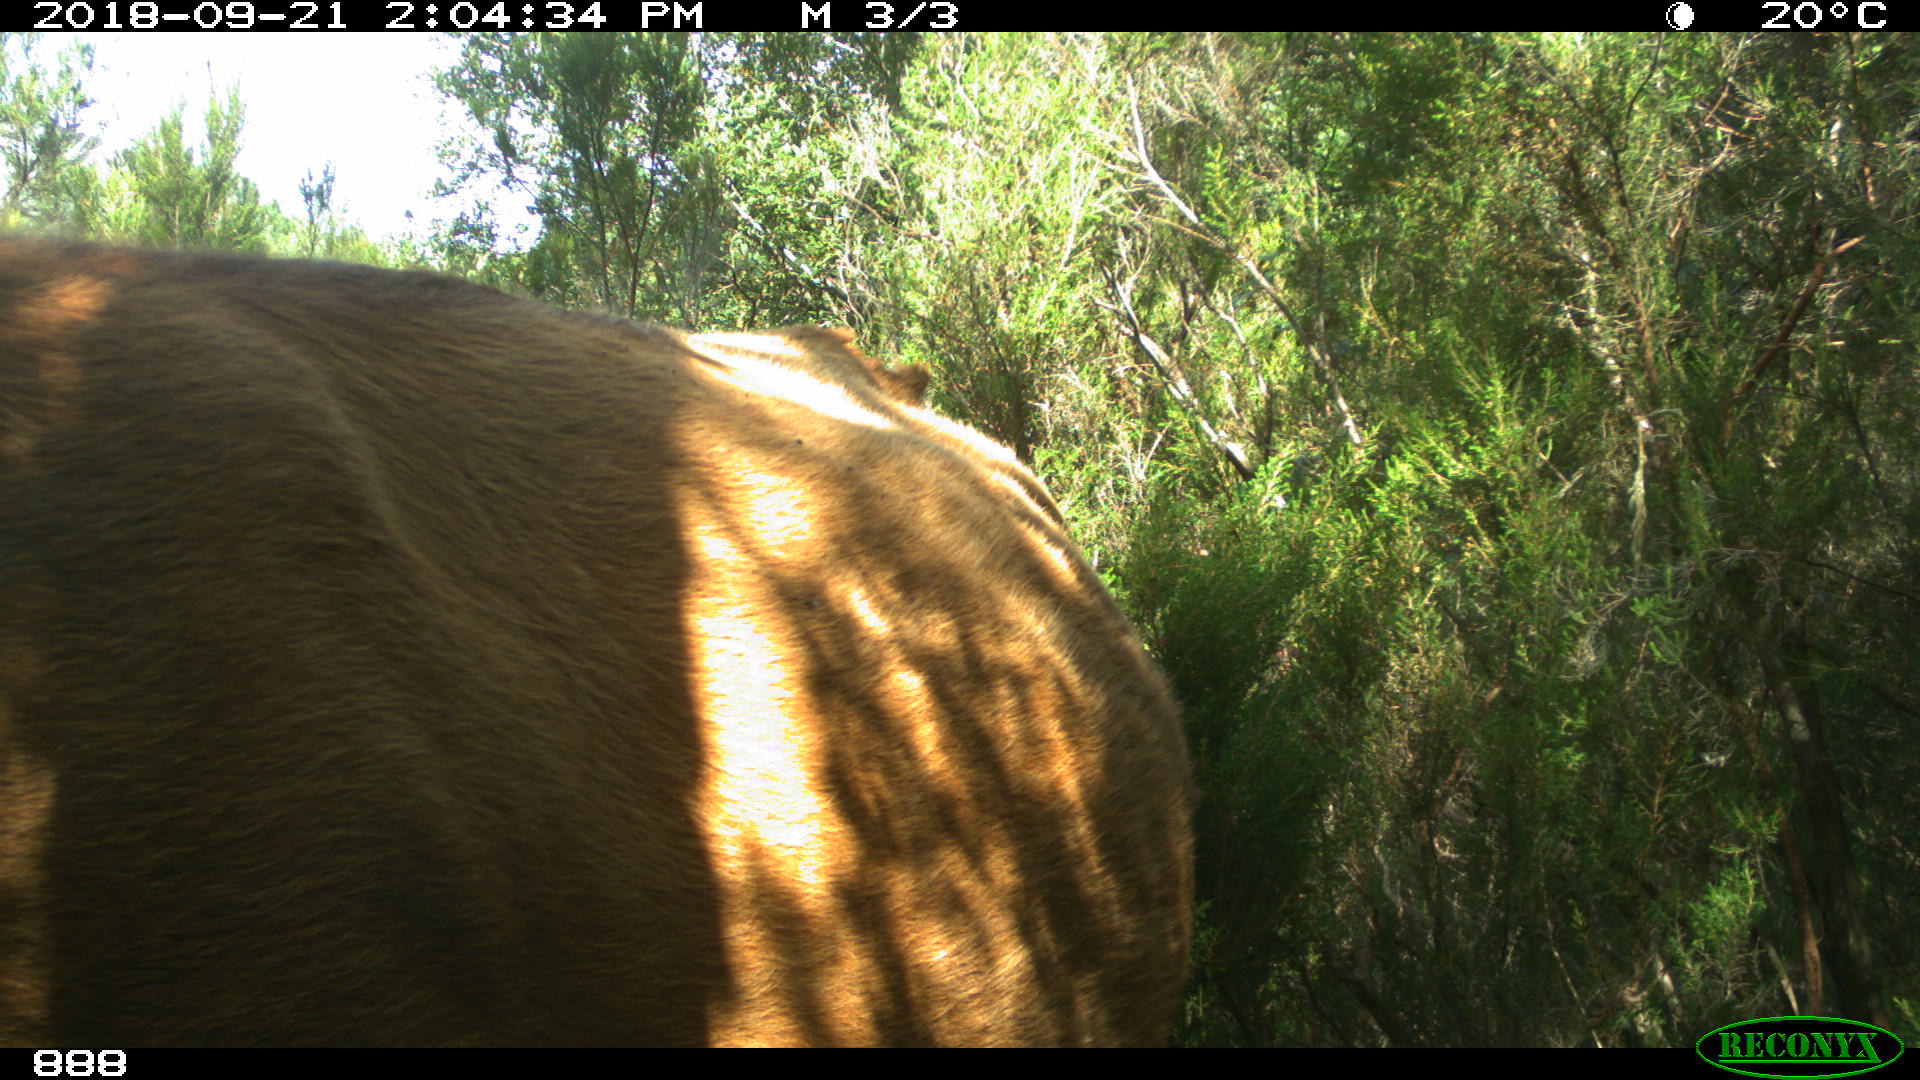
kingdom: Animalia
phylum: Chordata
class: Mammalia
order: Artiodactyla
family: Bovidae
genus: Bos
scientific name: Bos taurus
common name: Domesticated cattle
